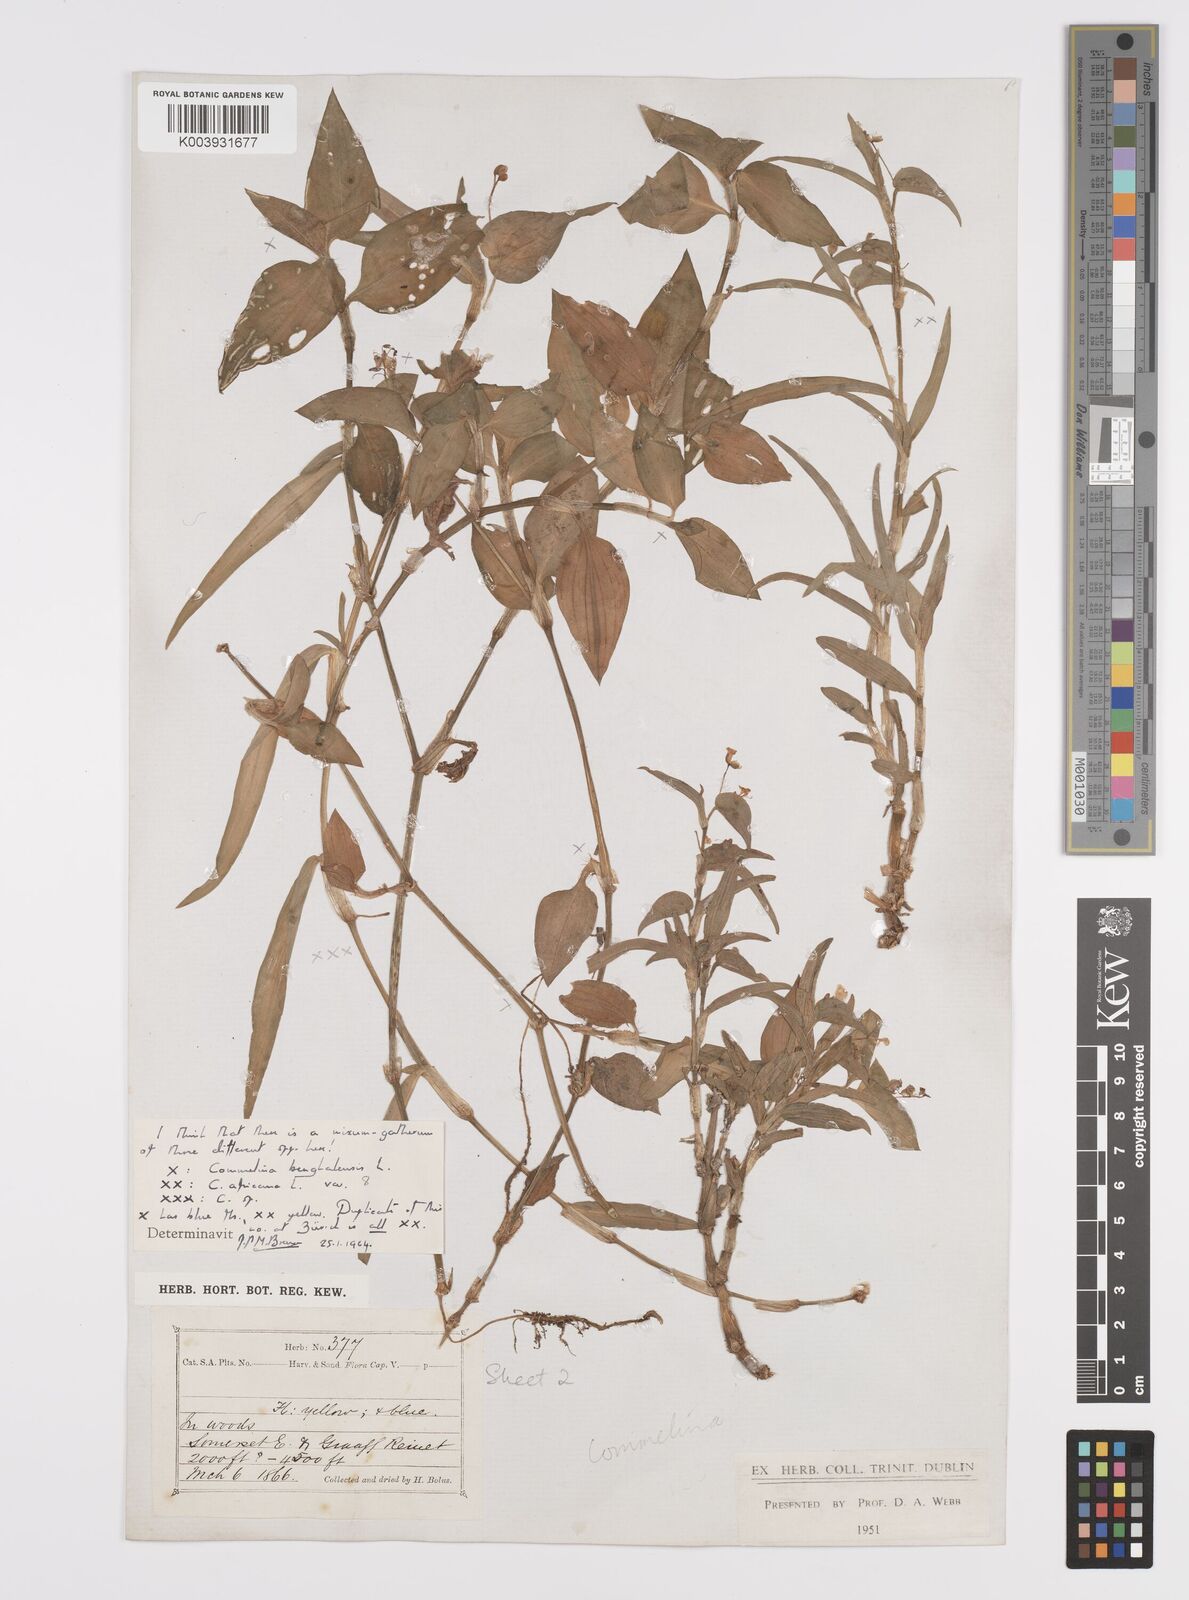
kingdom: Plantae
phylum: Tracheophyta
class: Liliopsida
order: Commelinales
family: Commelinaceae
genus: Commelina
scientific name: Commelina africana
